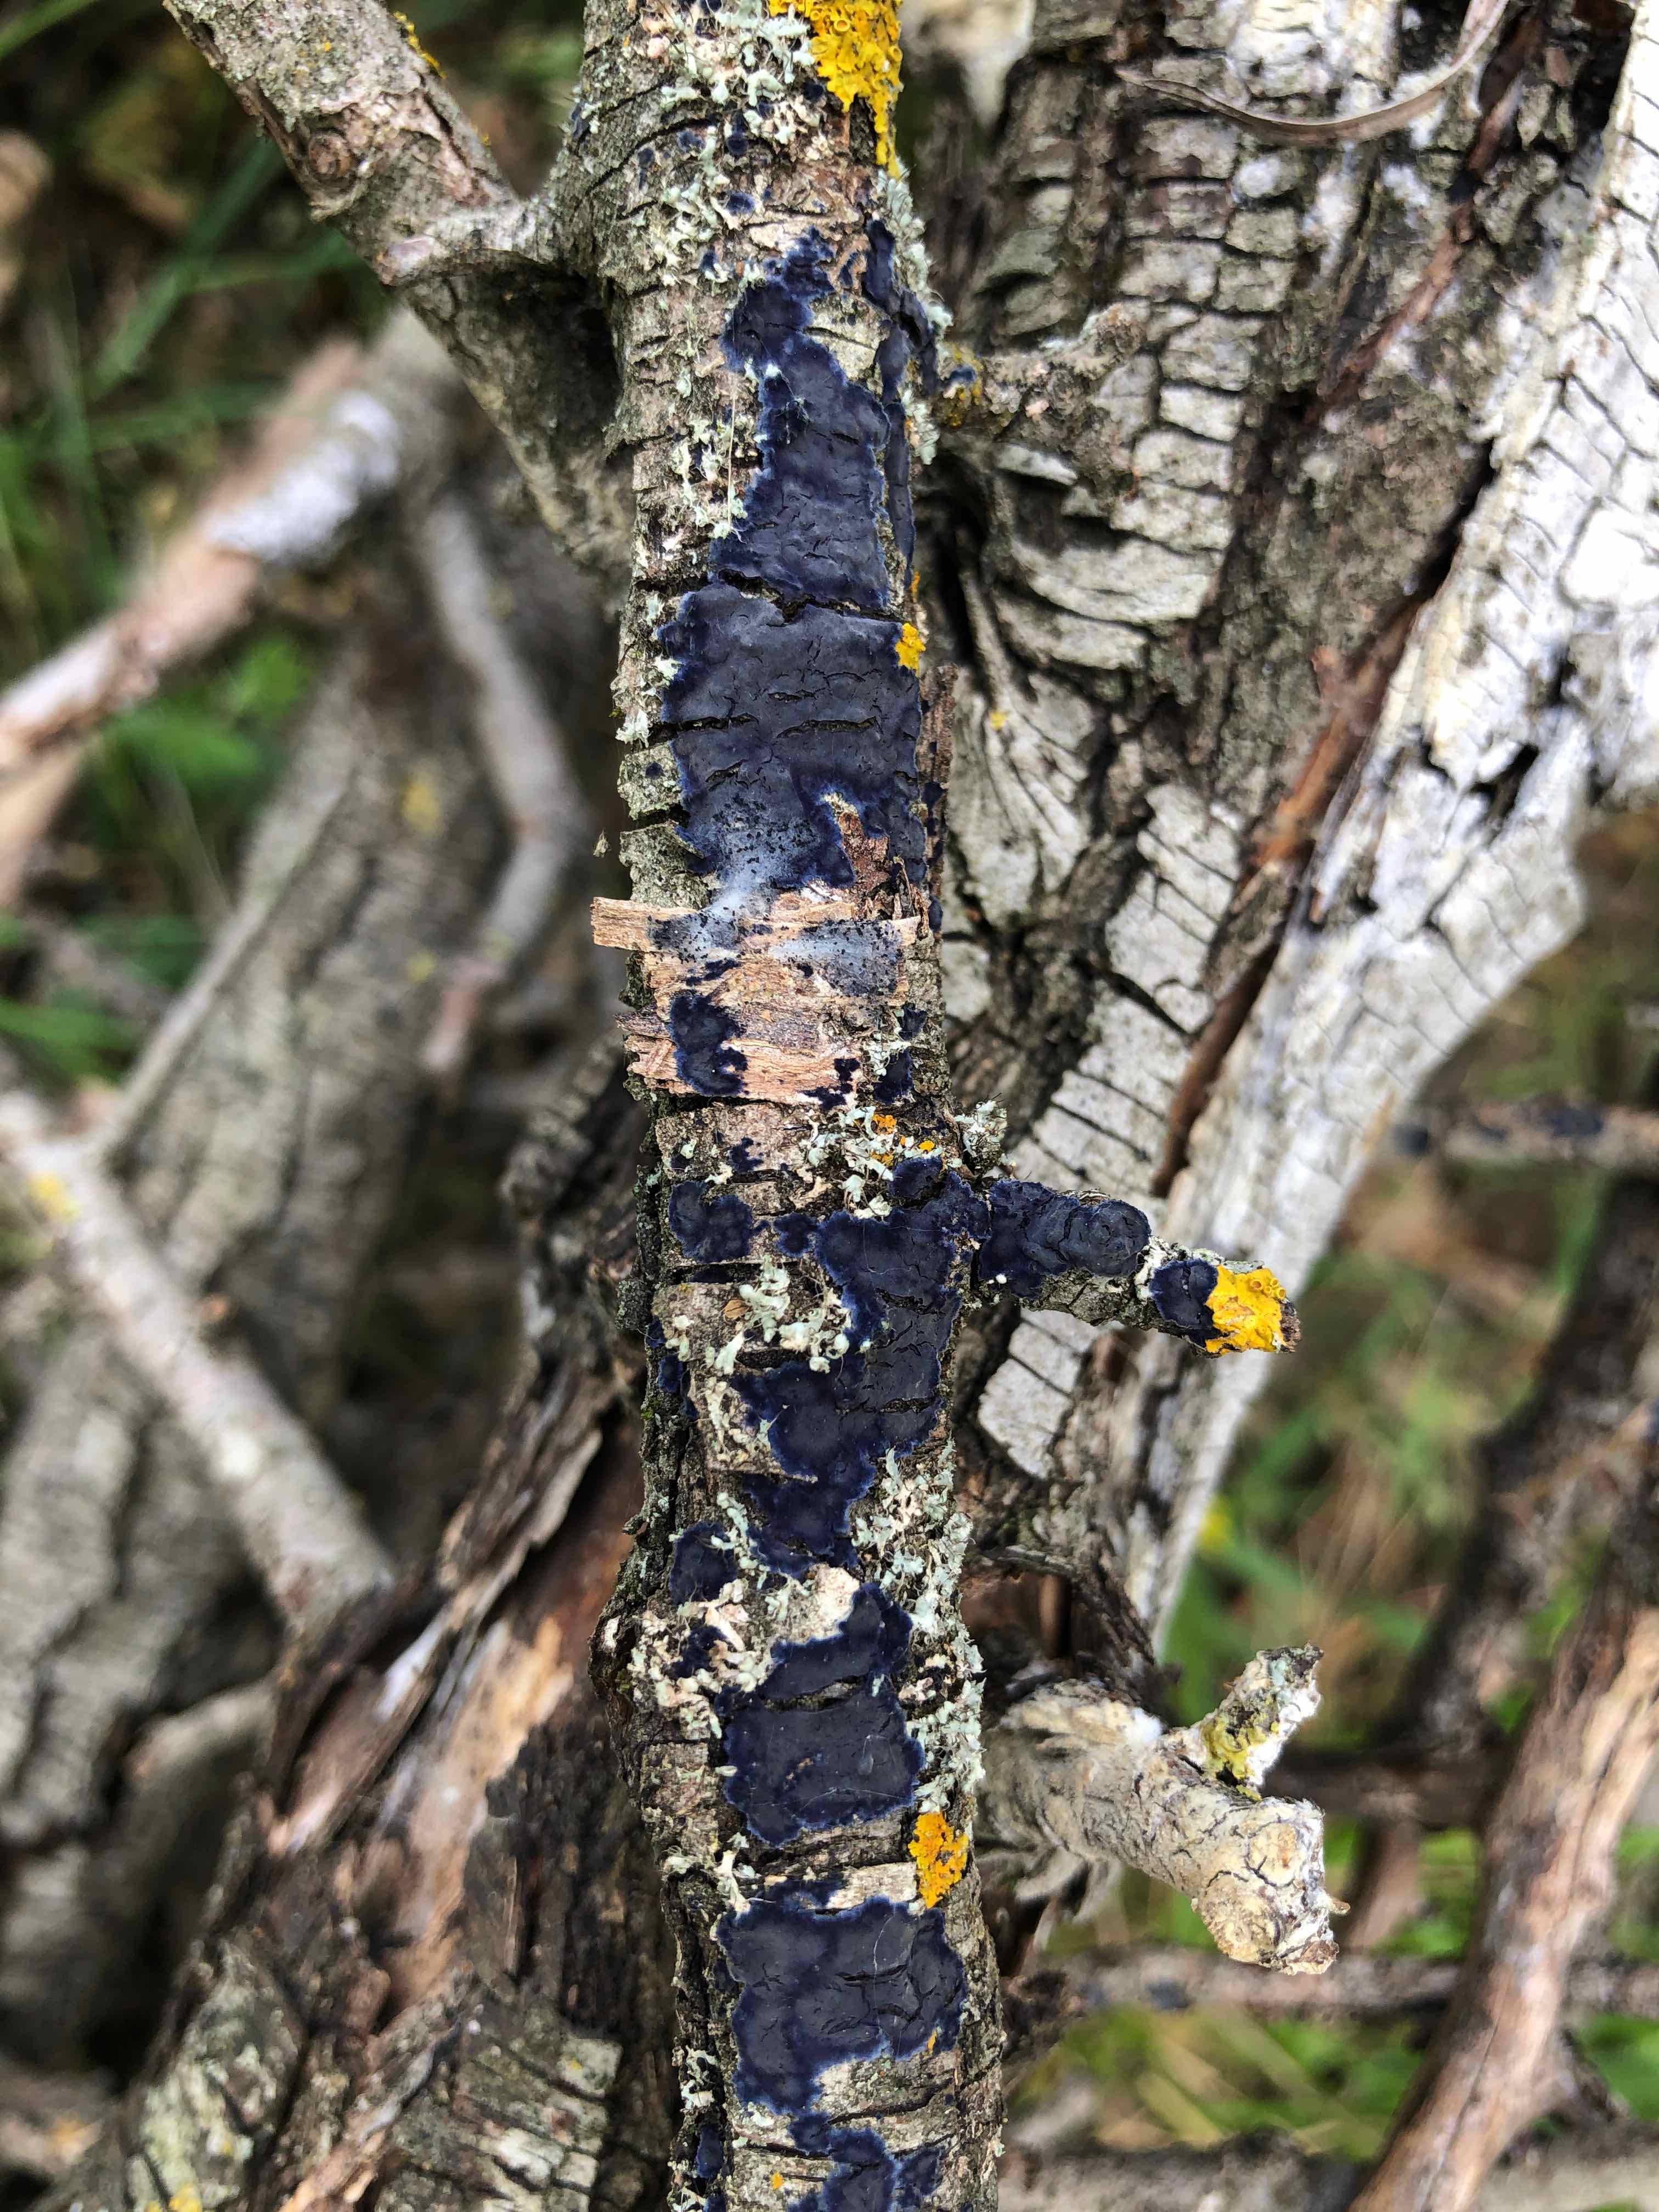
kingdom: Fungi
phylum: Basidiomycota
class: Agaricomycetes
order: Polyporales
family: Phanerochaetaceae
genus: Terana
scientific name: Terana caerulea
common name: indigoskorpe
